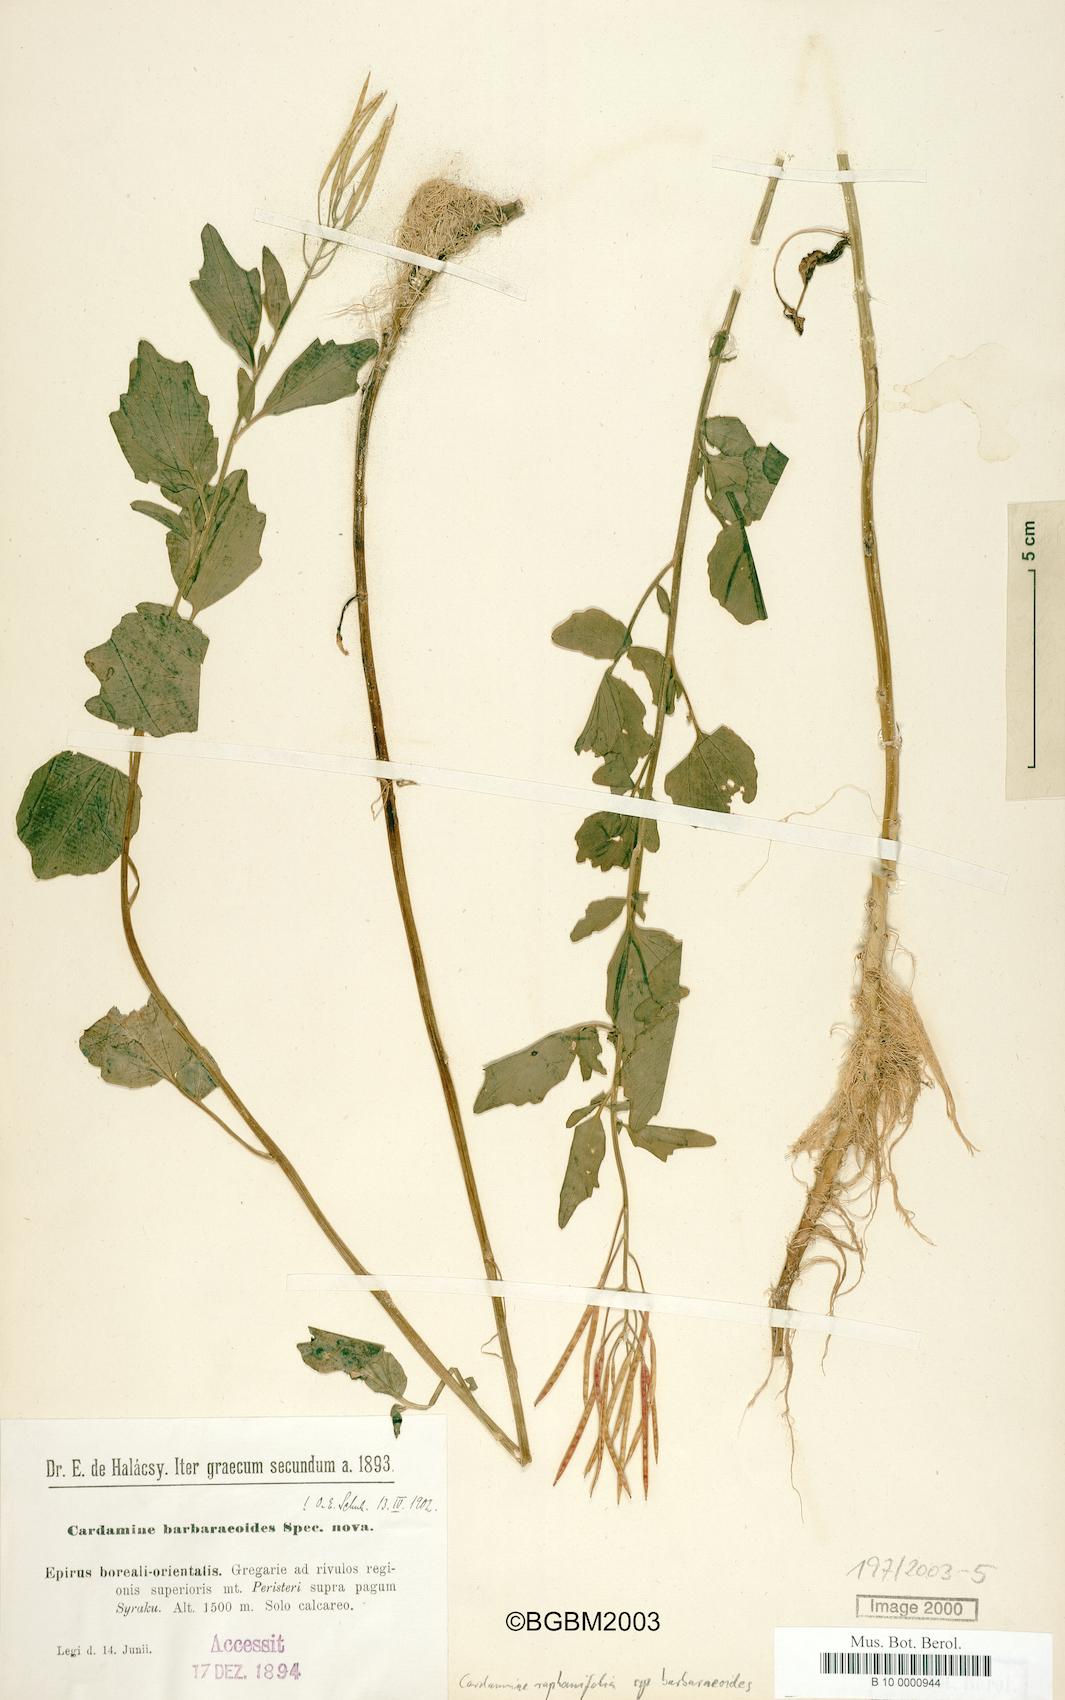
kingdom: Plantae
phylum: Tracheophyta
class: Magnoliopsida
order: Brassicales
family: Brassicaceae
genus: Cardamine
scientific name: Cardamine raphanifolia
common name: Greater cuckooflower
